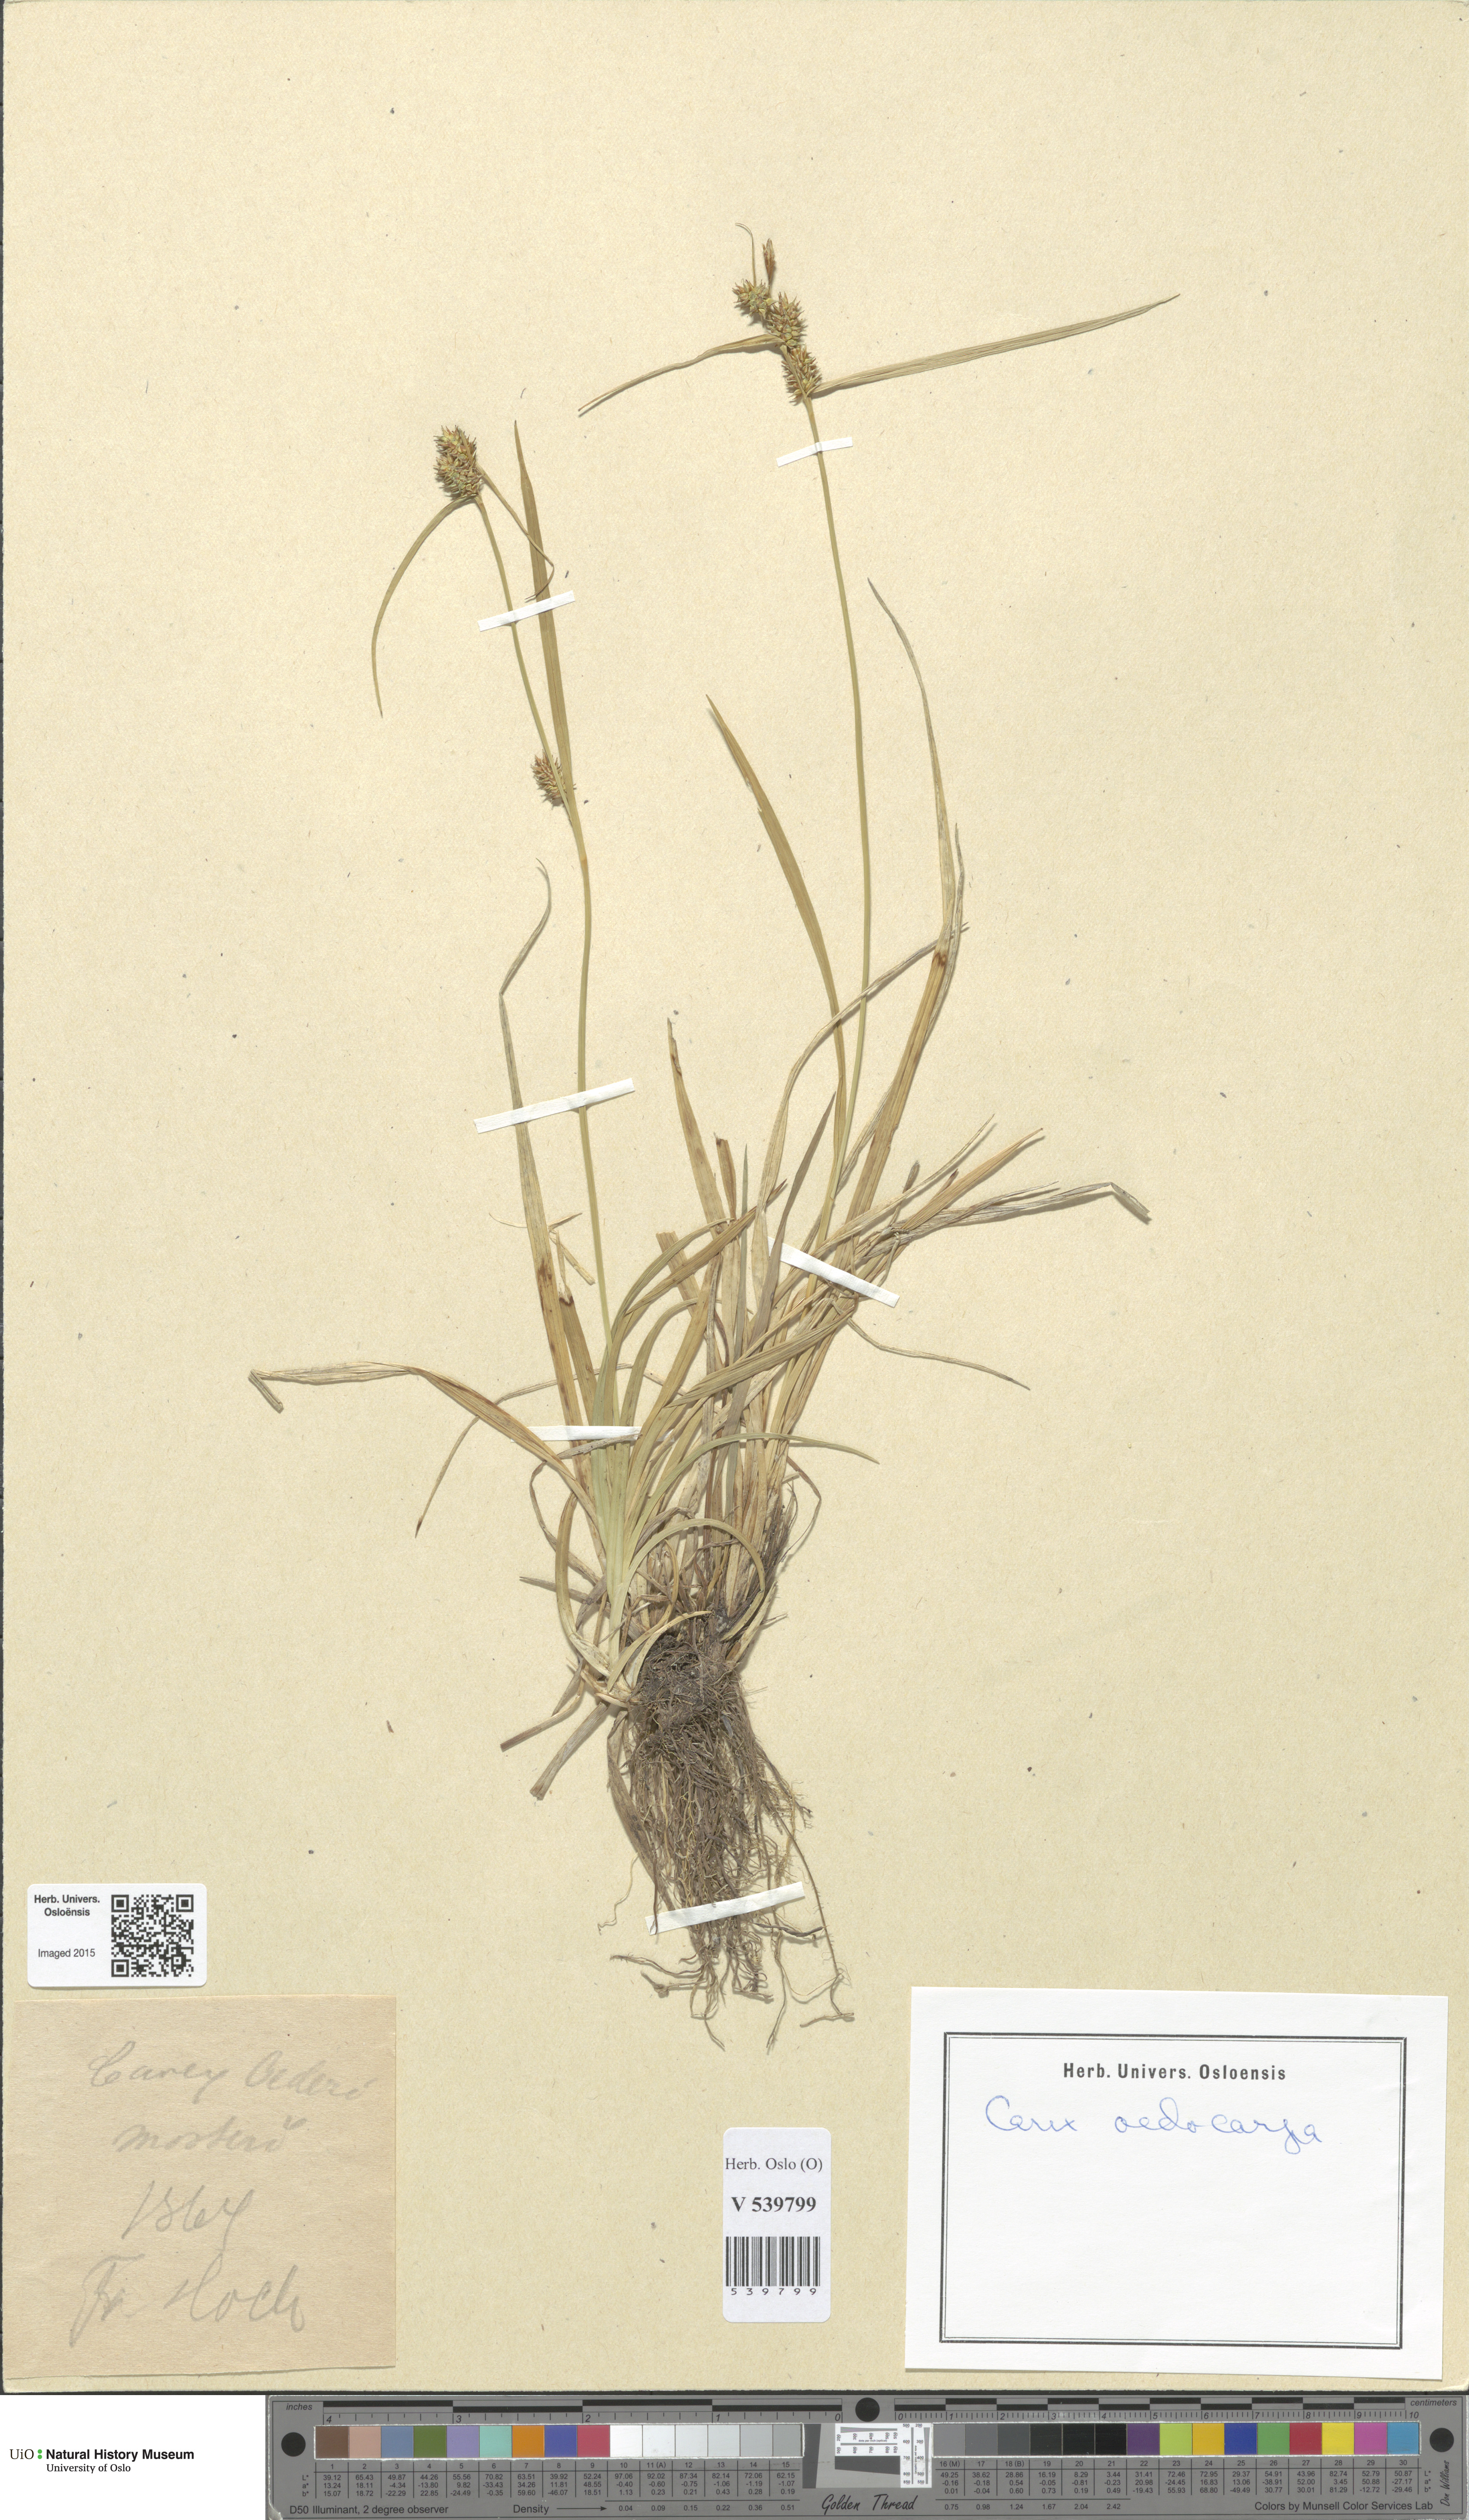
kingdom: Plantae
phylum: Tracheophyta
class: Liliopsida
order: Poales
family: Cyperaceae
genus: Carex
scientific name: Carex demissa
